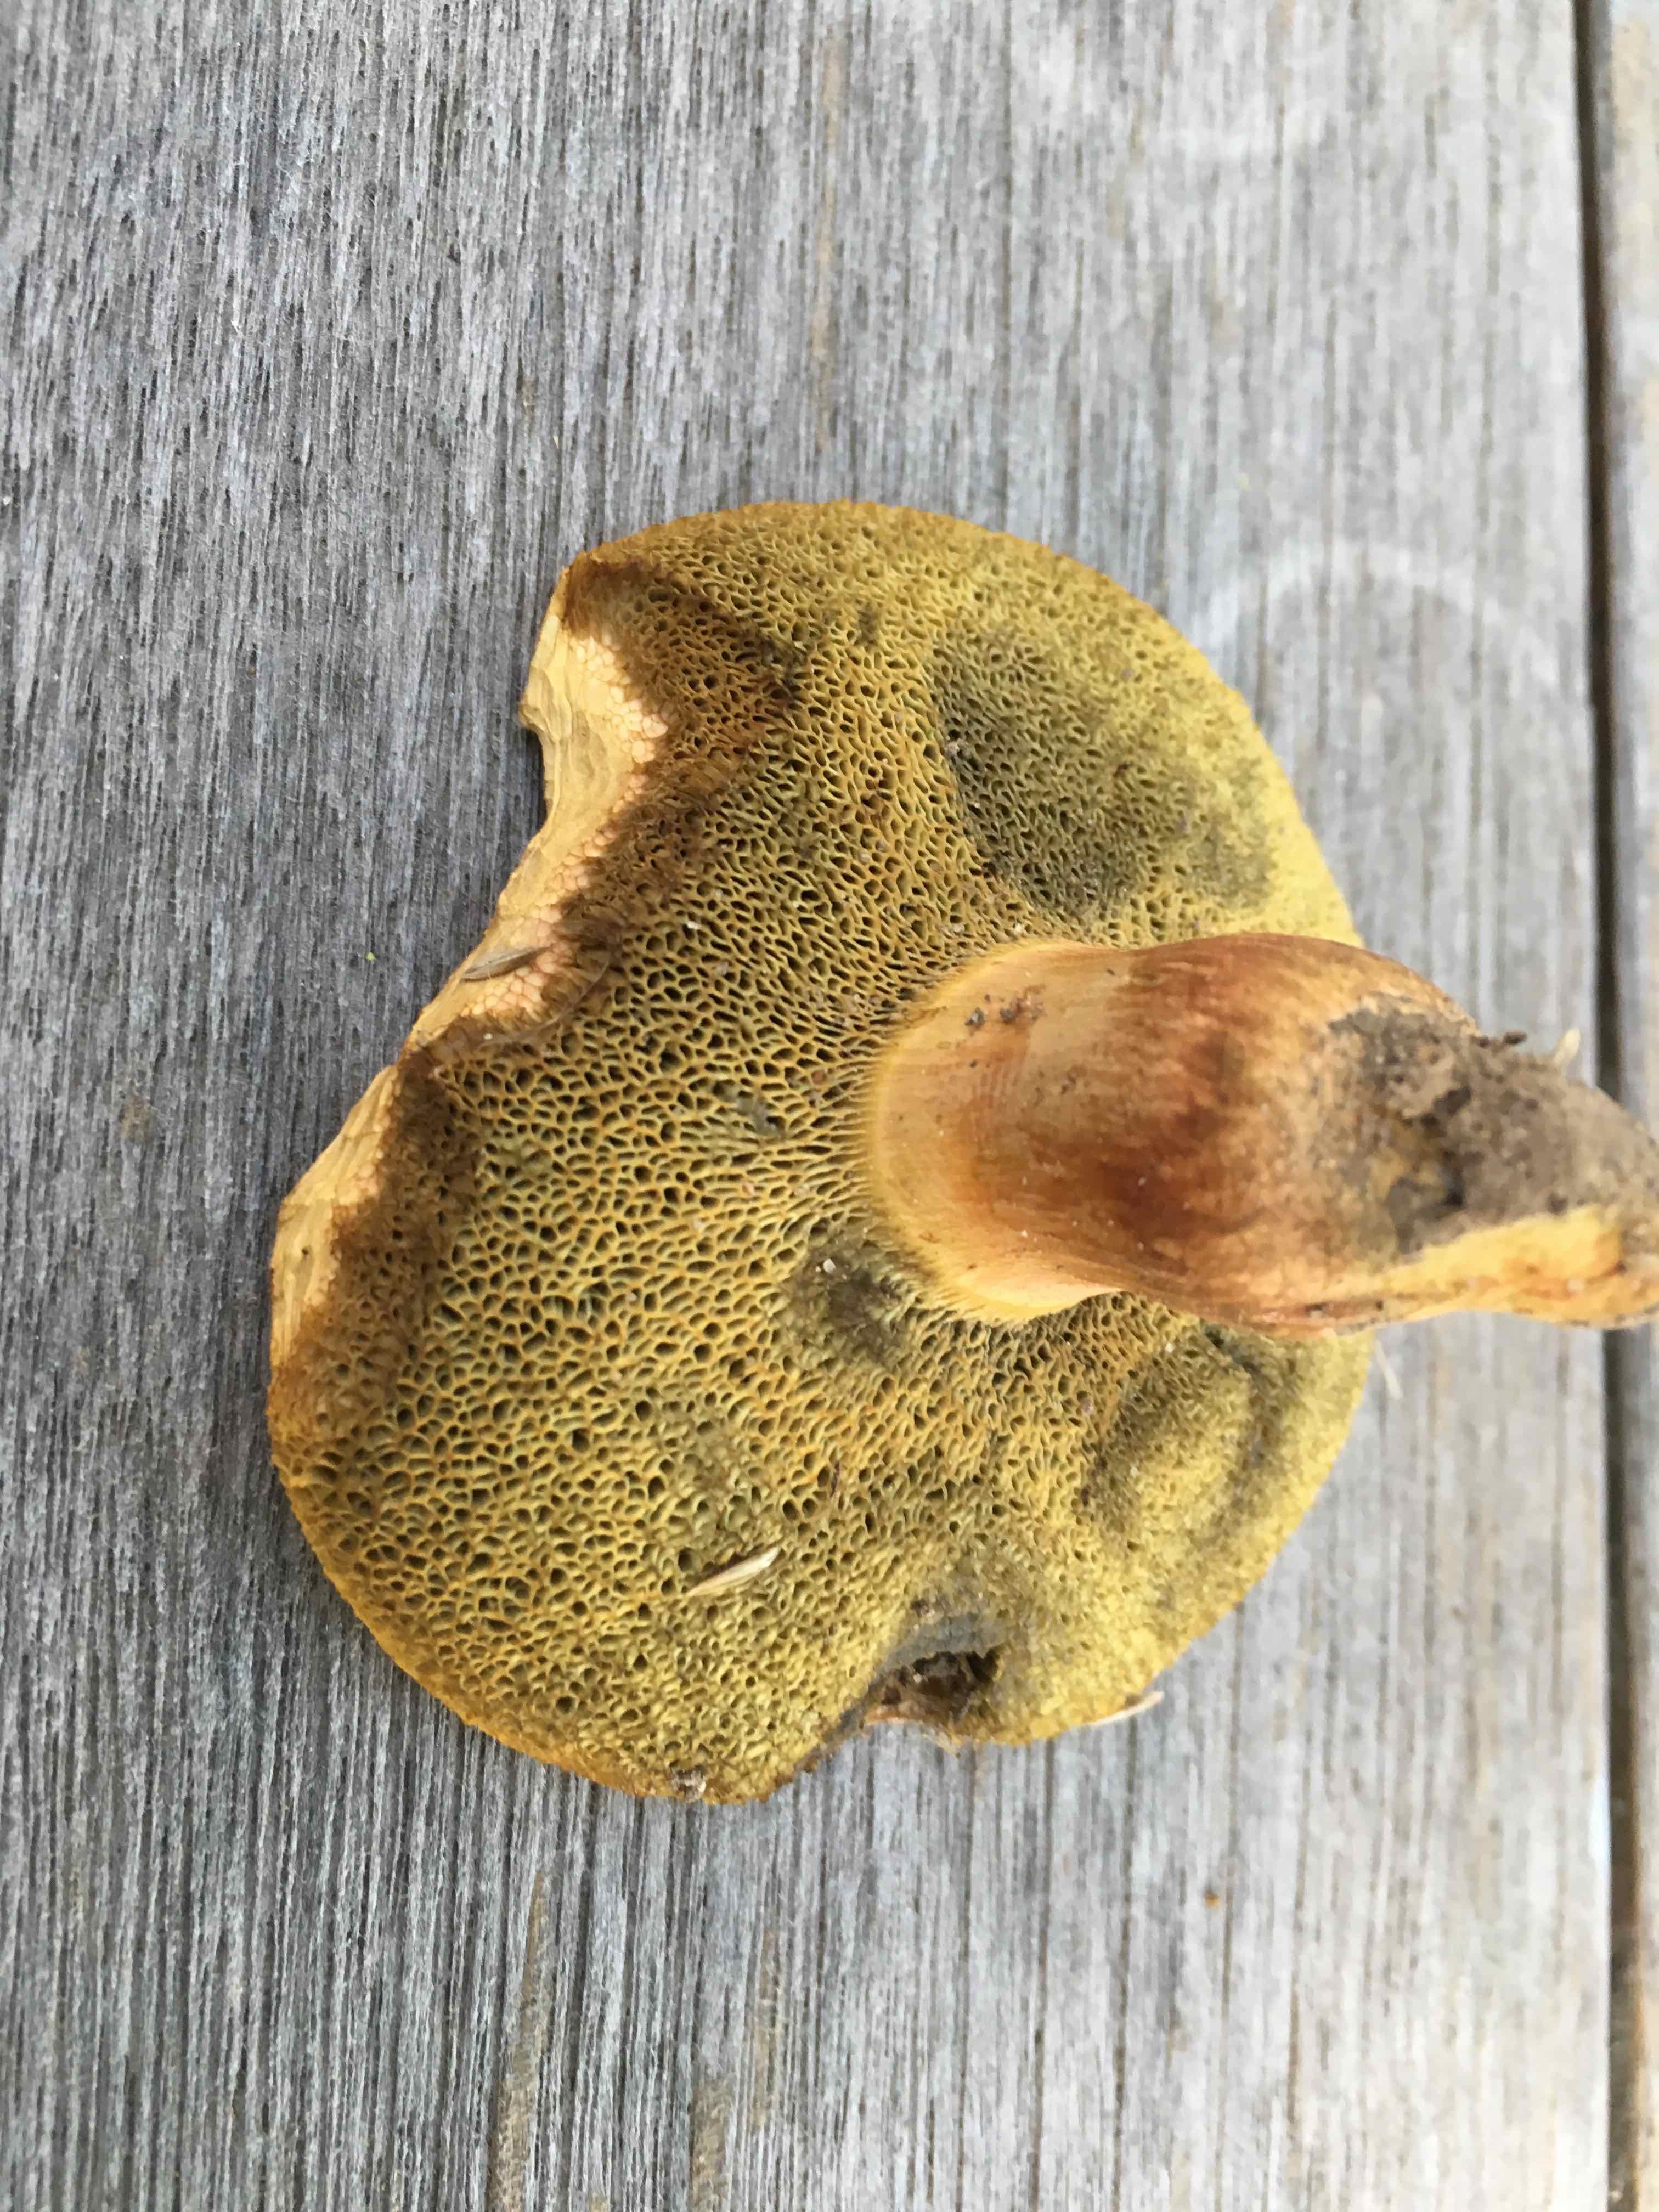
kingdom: Fungi
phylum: Basidiomycota
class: Agaricomycetes
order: Boletales
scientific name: Boletales
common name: rørhatordenen
